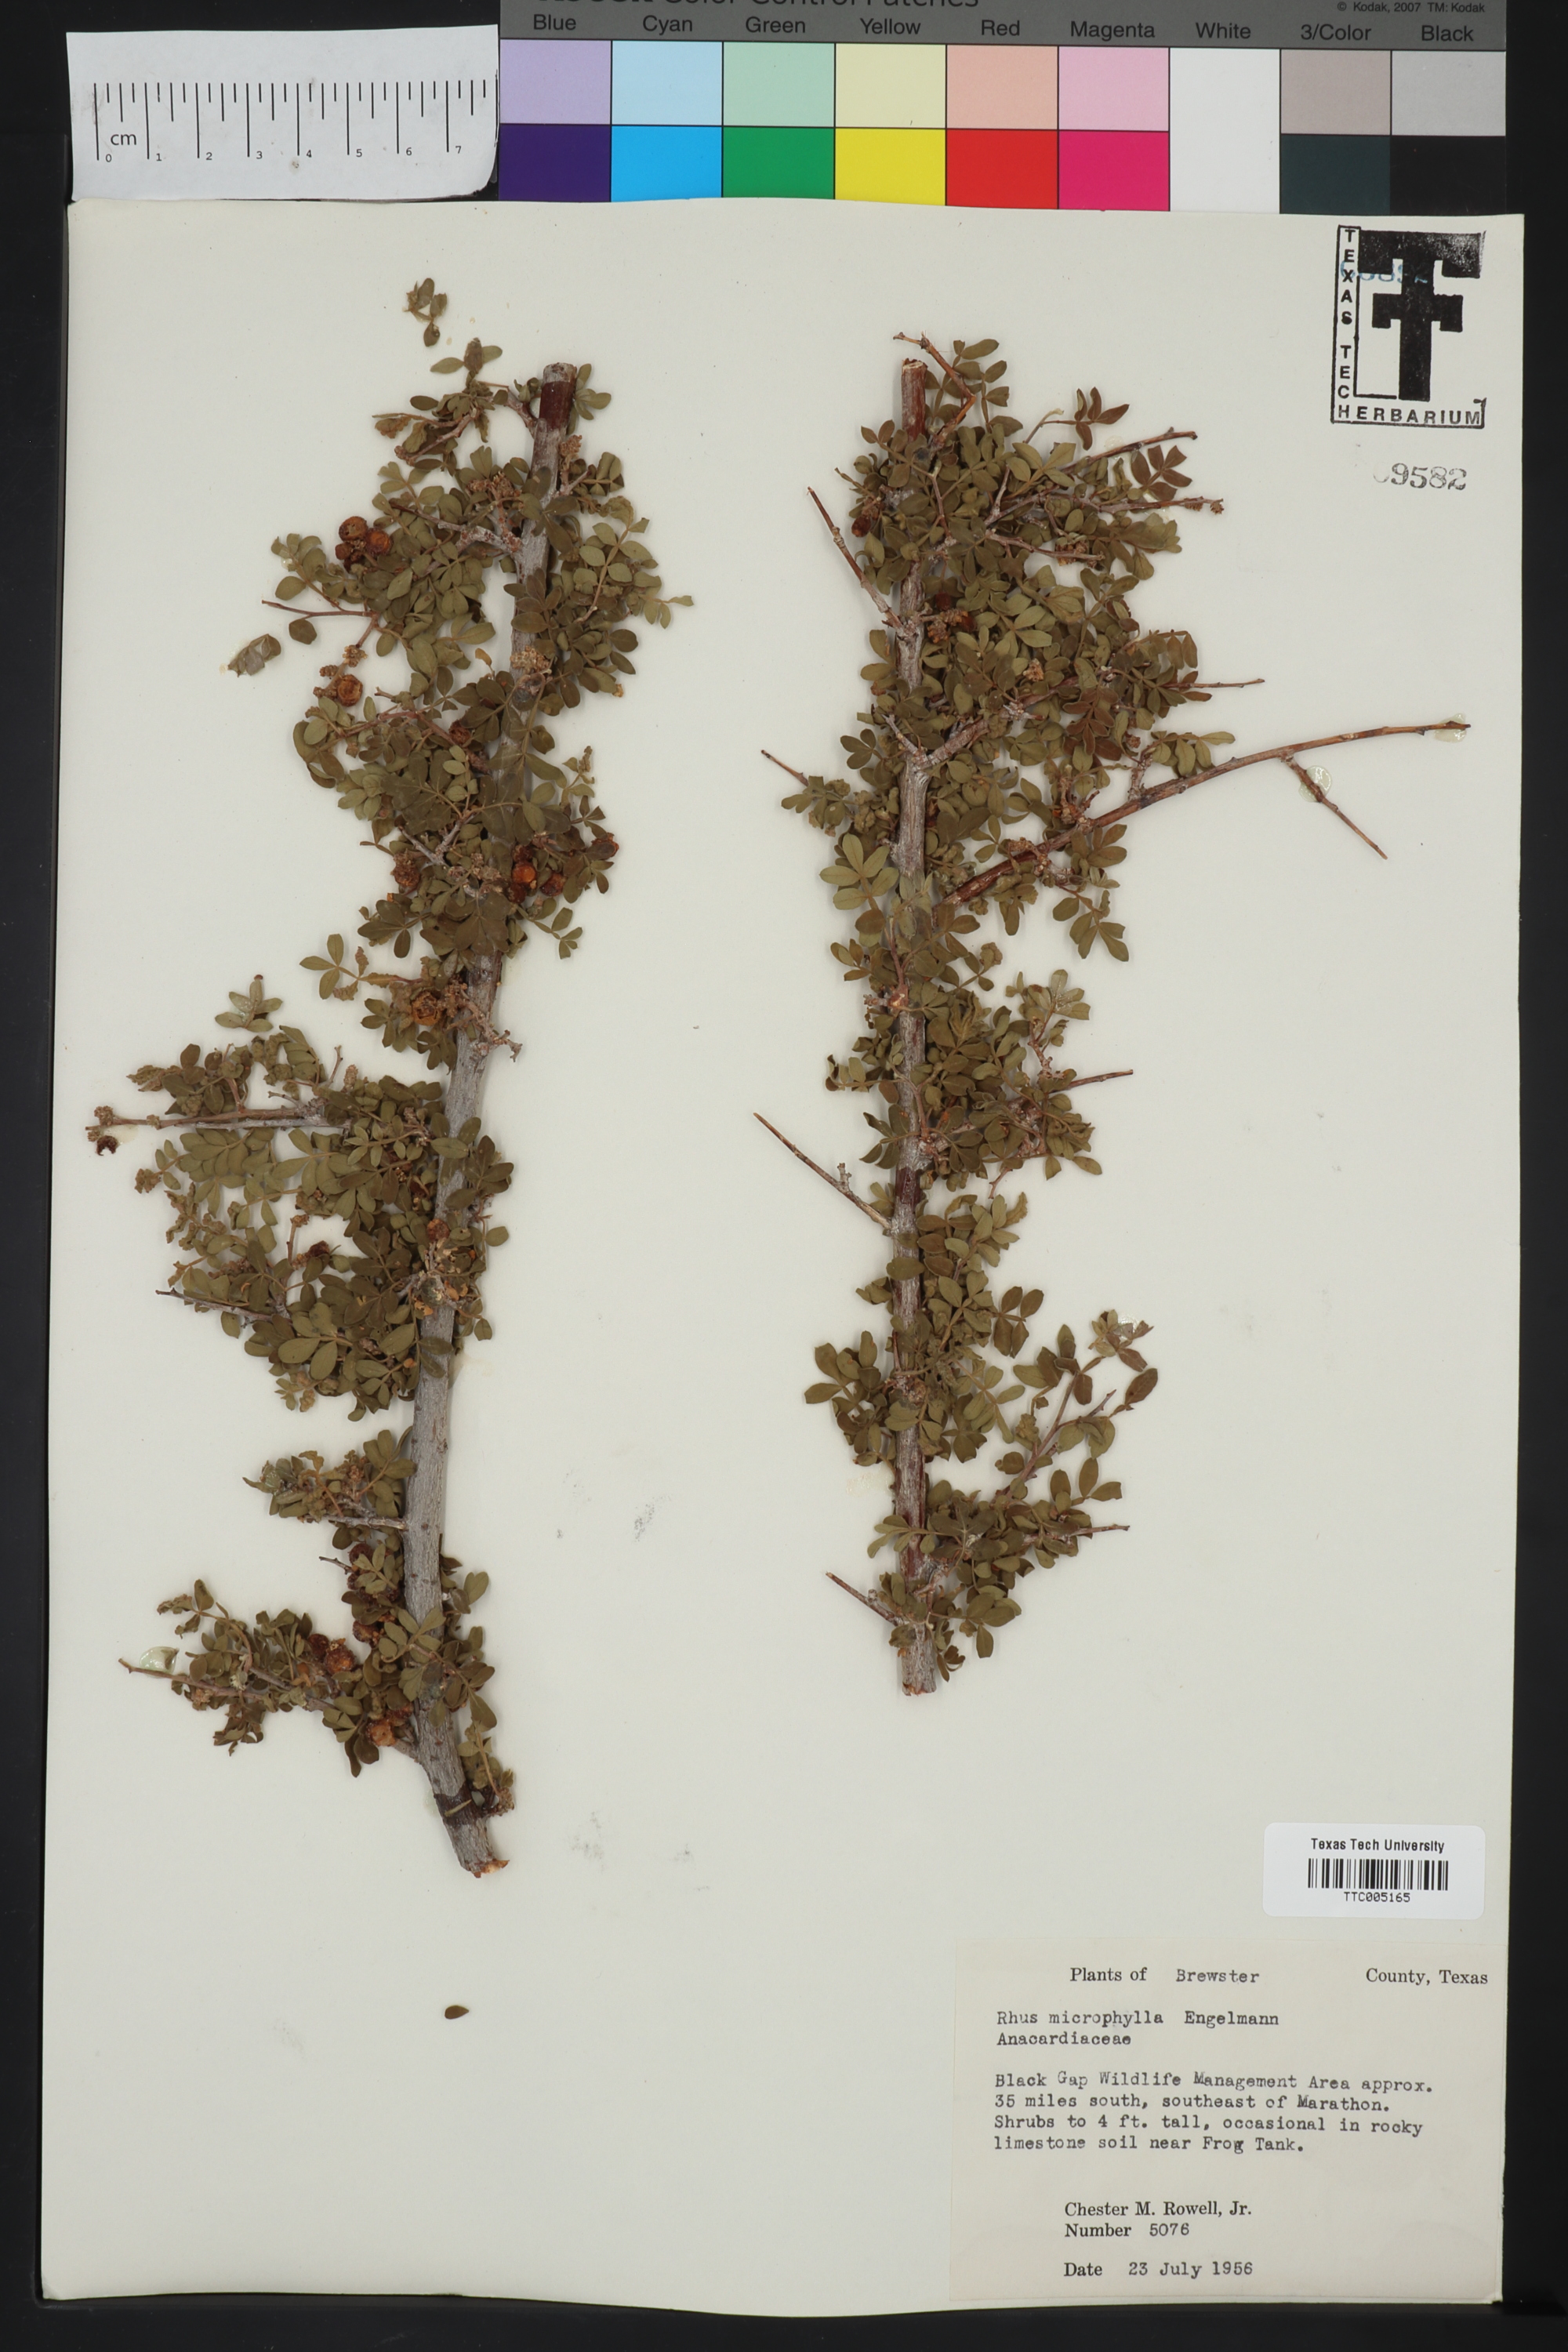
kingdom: Plantae
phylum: Tracheophyta
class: Magnoliopsida
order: Sapindales
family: Anacardiaceae
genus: Rhus
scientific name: Rhus microphylla
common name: Desert sumac
